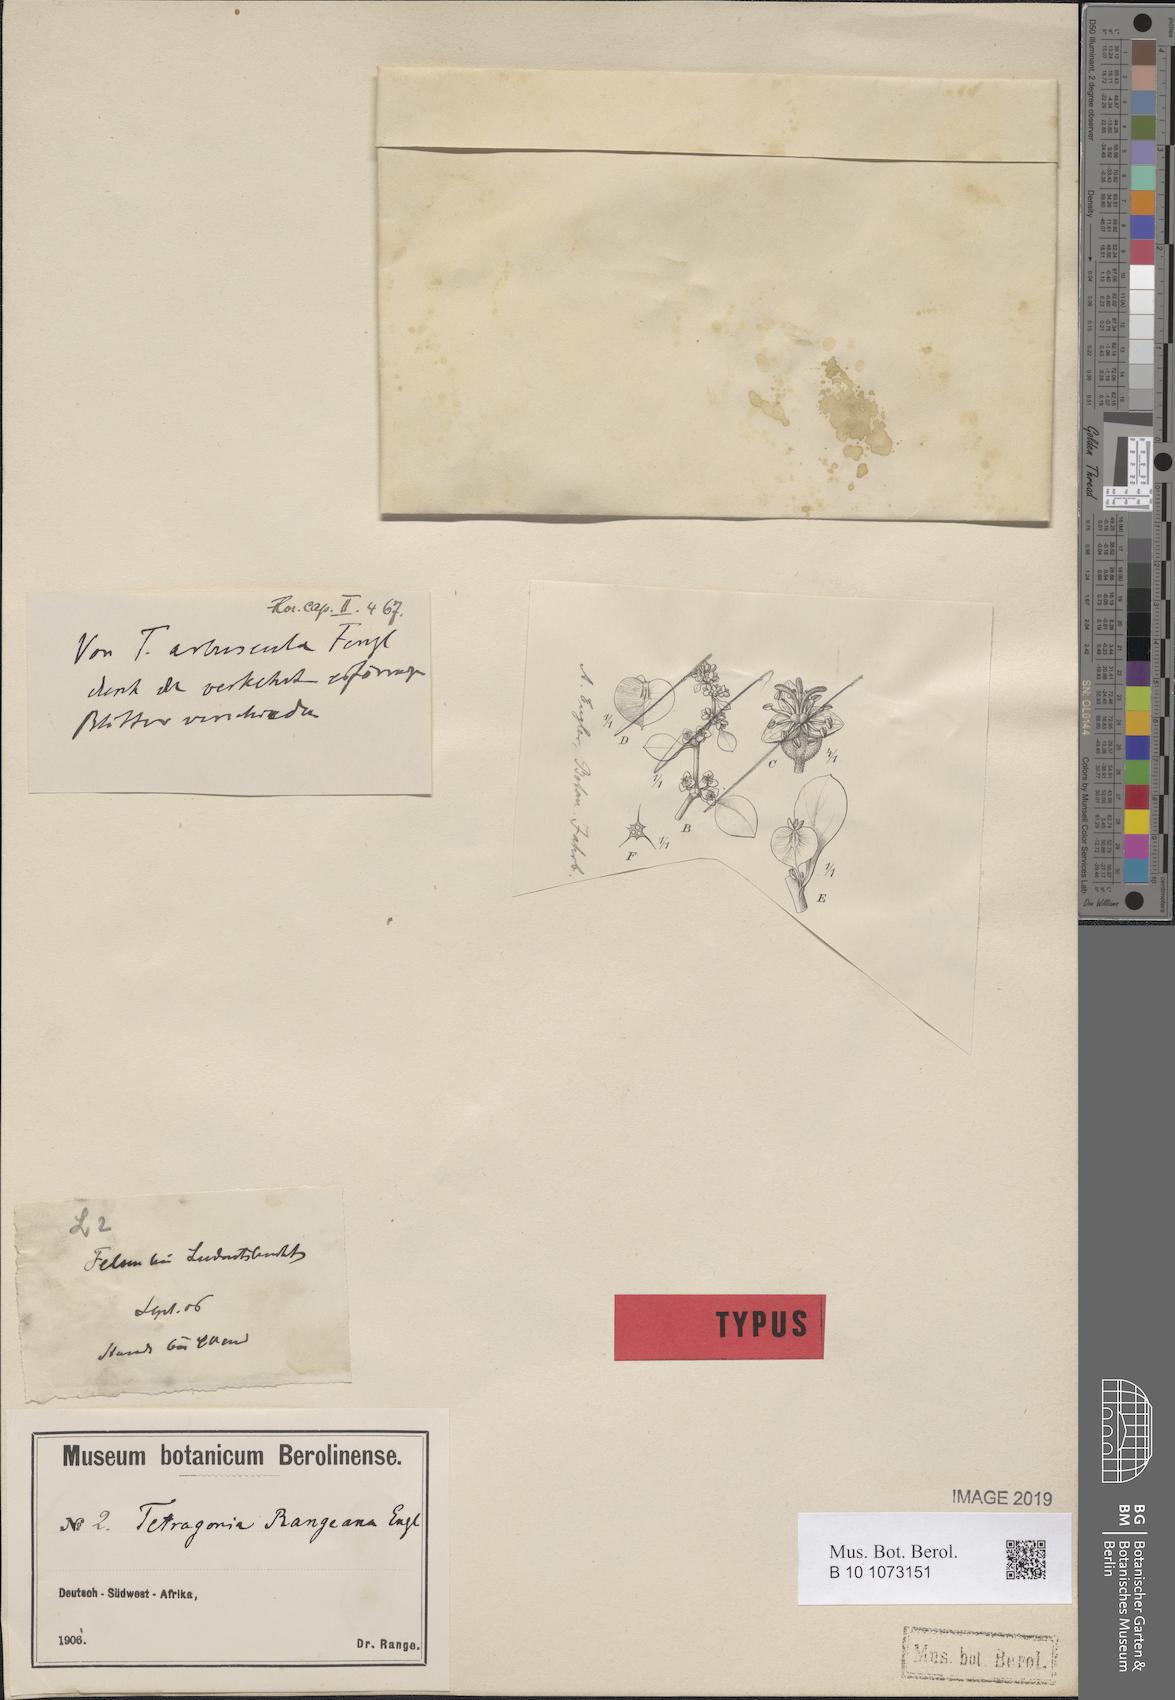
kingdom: Plantae
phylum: Tracheophyta
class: Magnoliopsida
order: Caryophyllales
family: Aizoaceae
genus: Tetragonia
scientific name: Tetragonia rangeana
